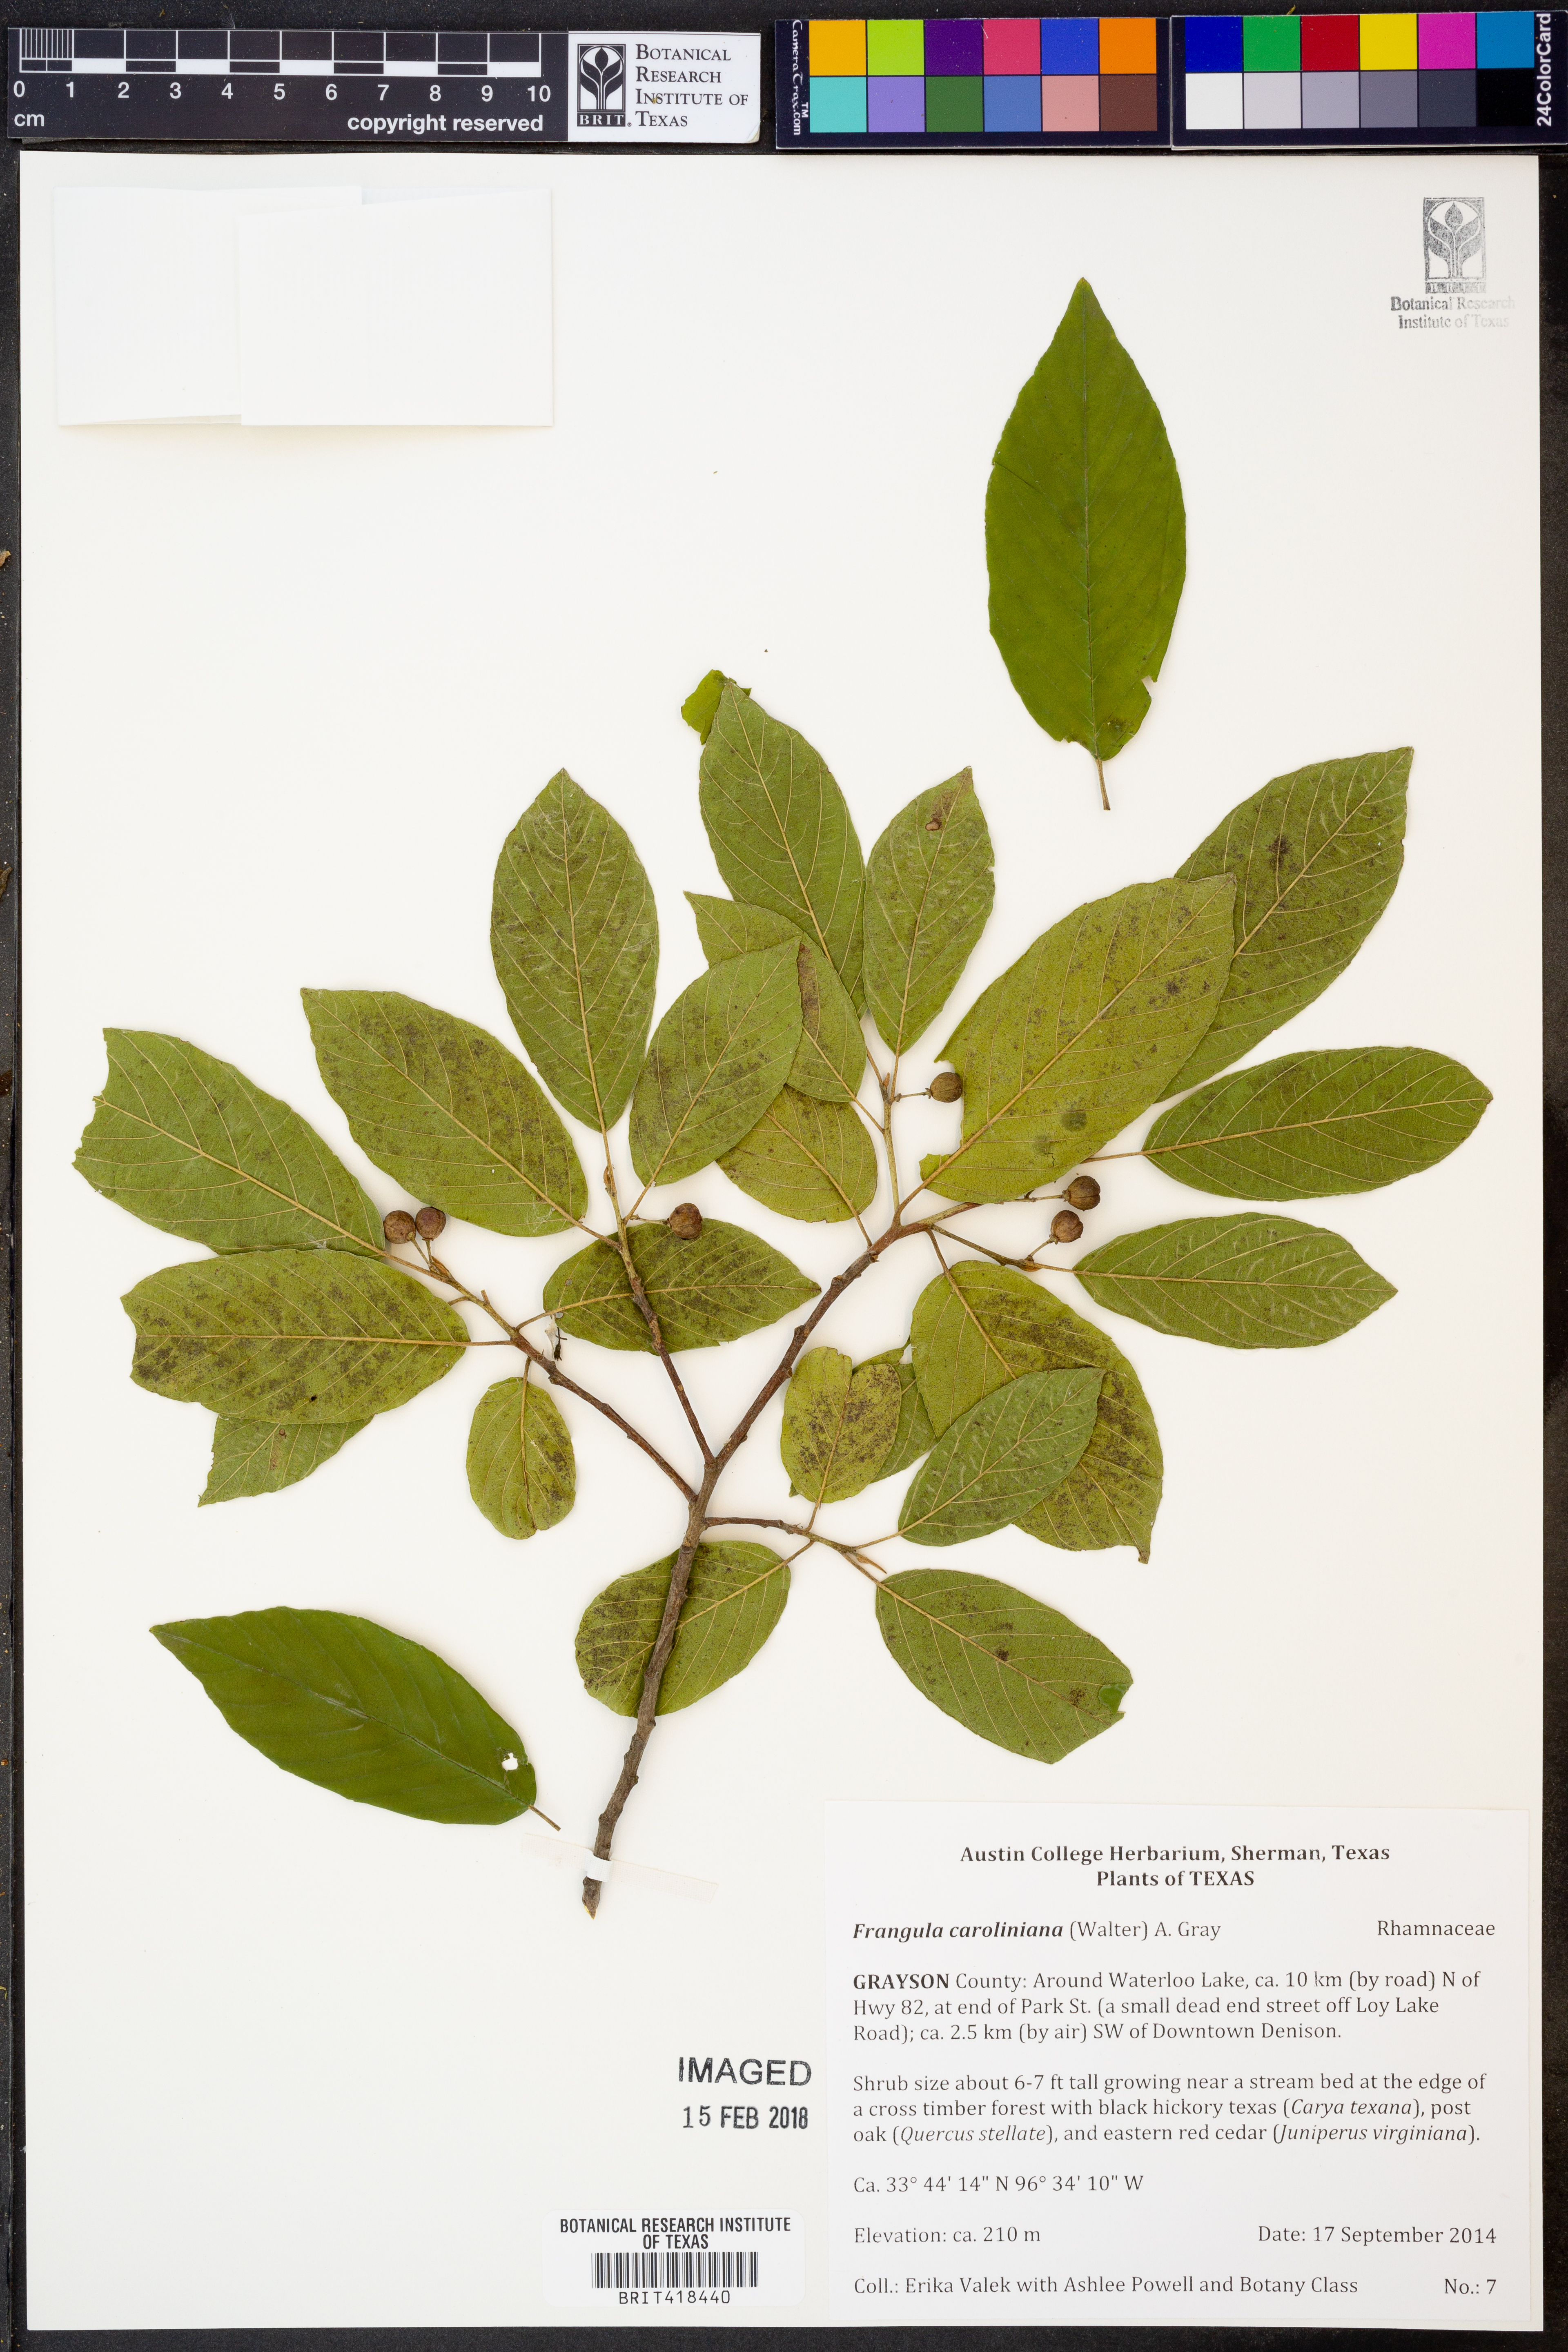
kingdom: Plantae
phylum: Tracheophyta
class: Magnoliopsida
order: Rosales
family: Rhamnaceae
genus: Frangula
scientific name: Frangula caroliniana
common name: Carolina buckthorn
